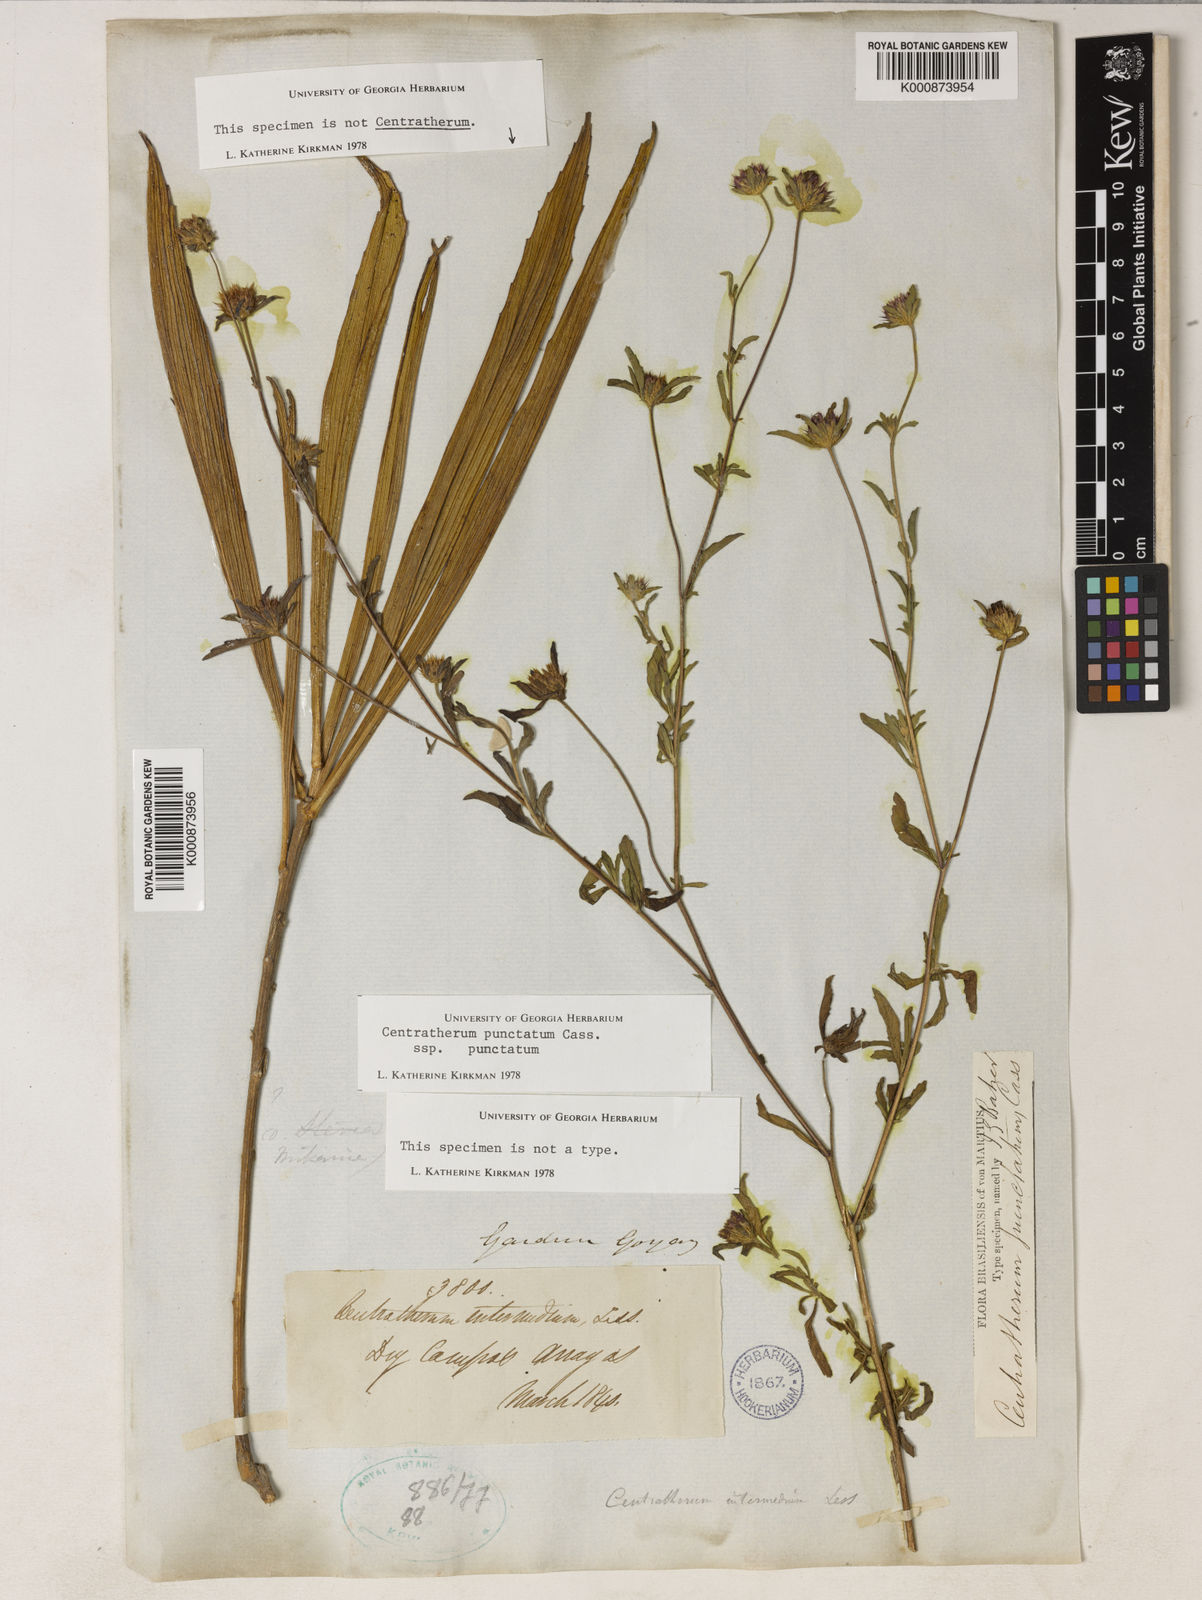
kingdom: Plantae
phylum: Tracheophyta
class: Magnoliopsida
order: Asterales
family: Asteraceae
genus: Centratherum
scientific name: Centratherum punctatum
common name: Larkdaisy
